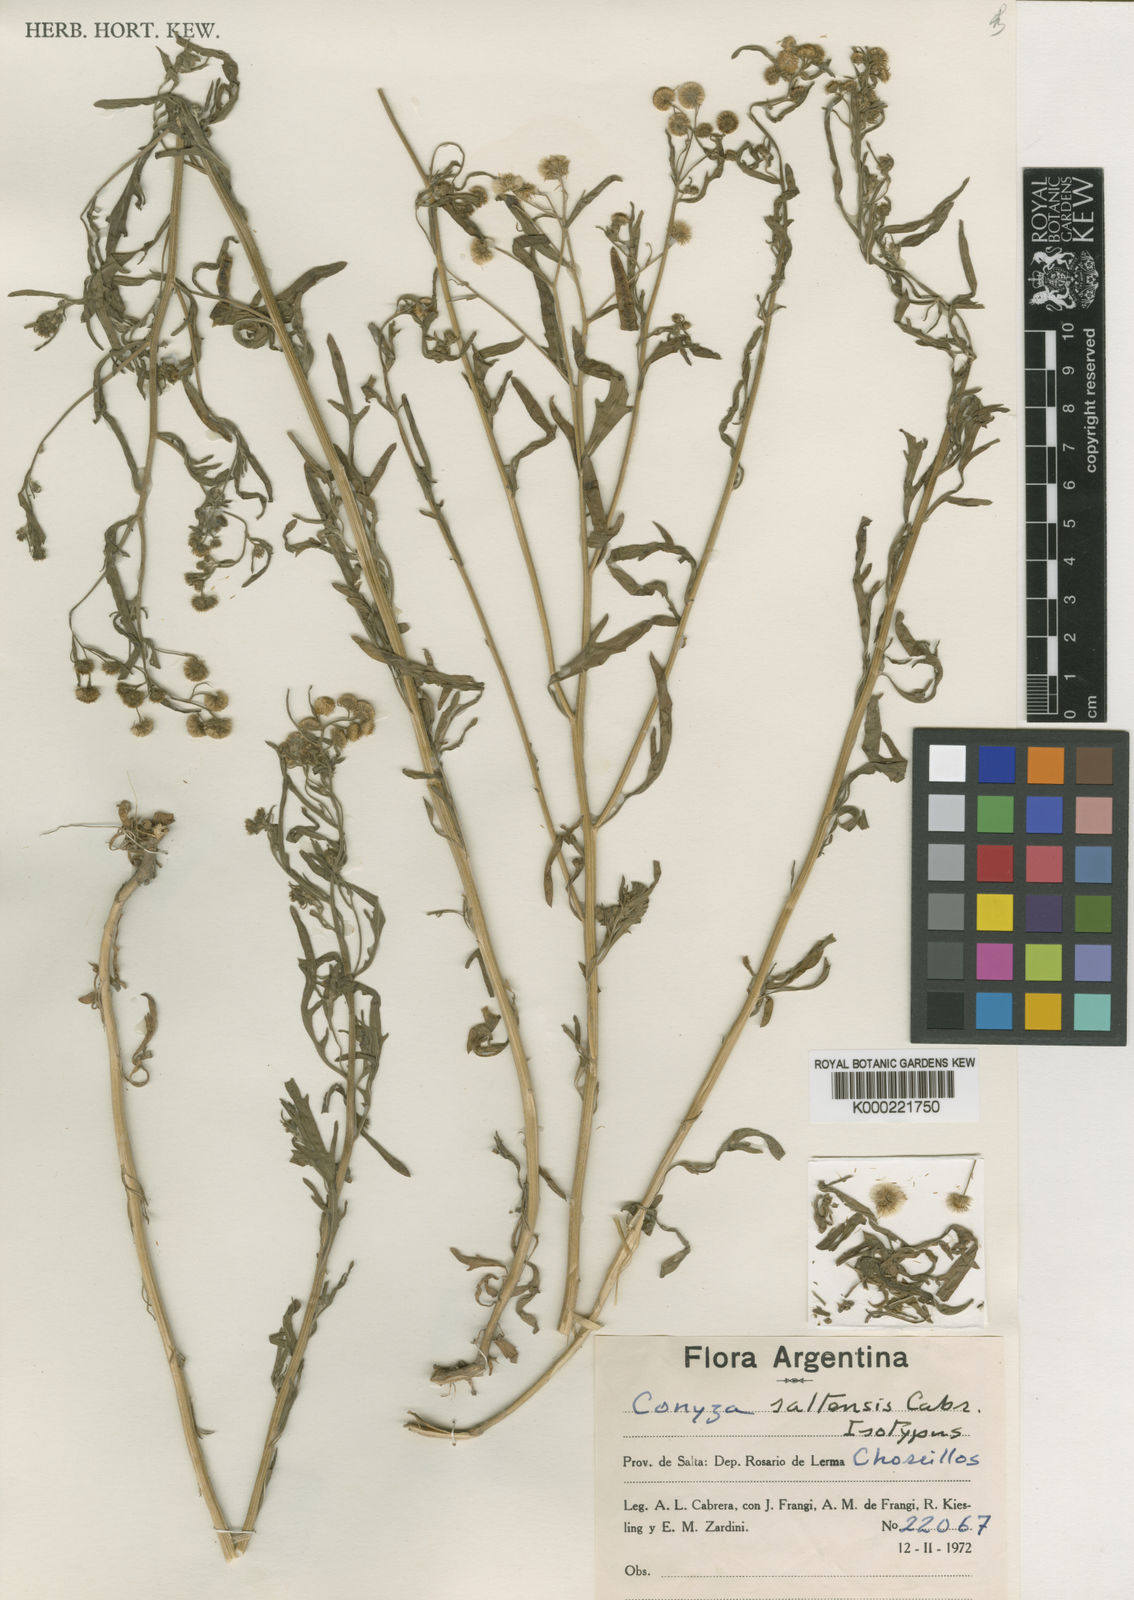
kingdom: Plantae
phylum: Tracheophyta
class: Magnoliopsida
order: Asterales
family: Asteraceae
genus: Erigeron
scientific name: Erigeron saltensis
